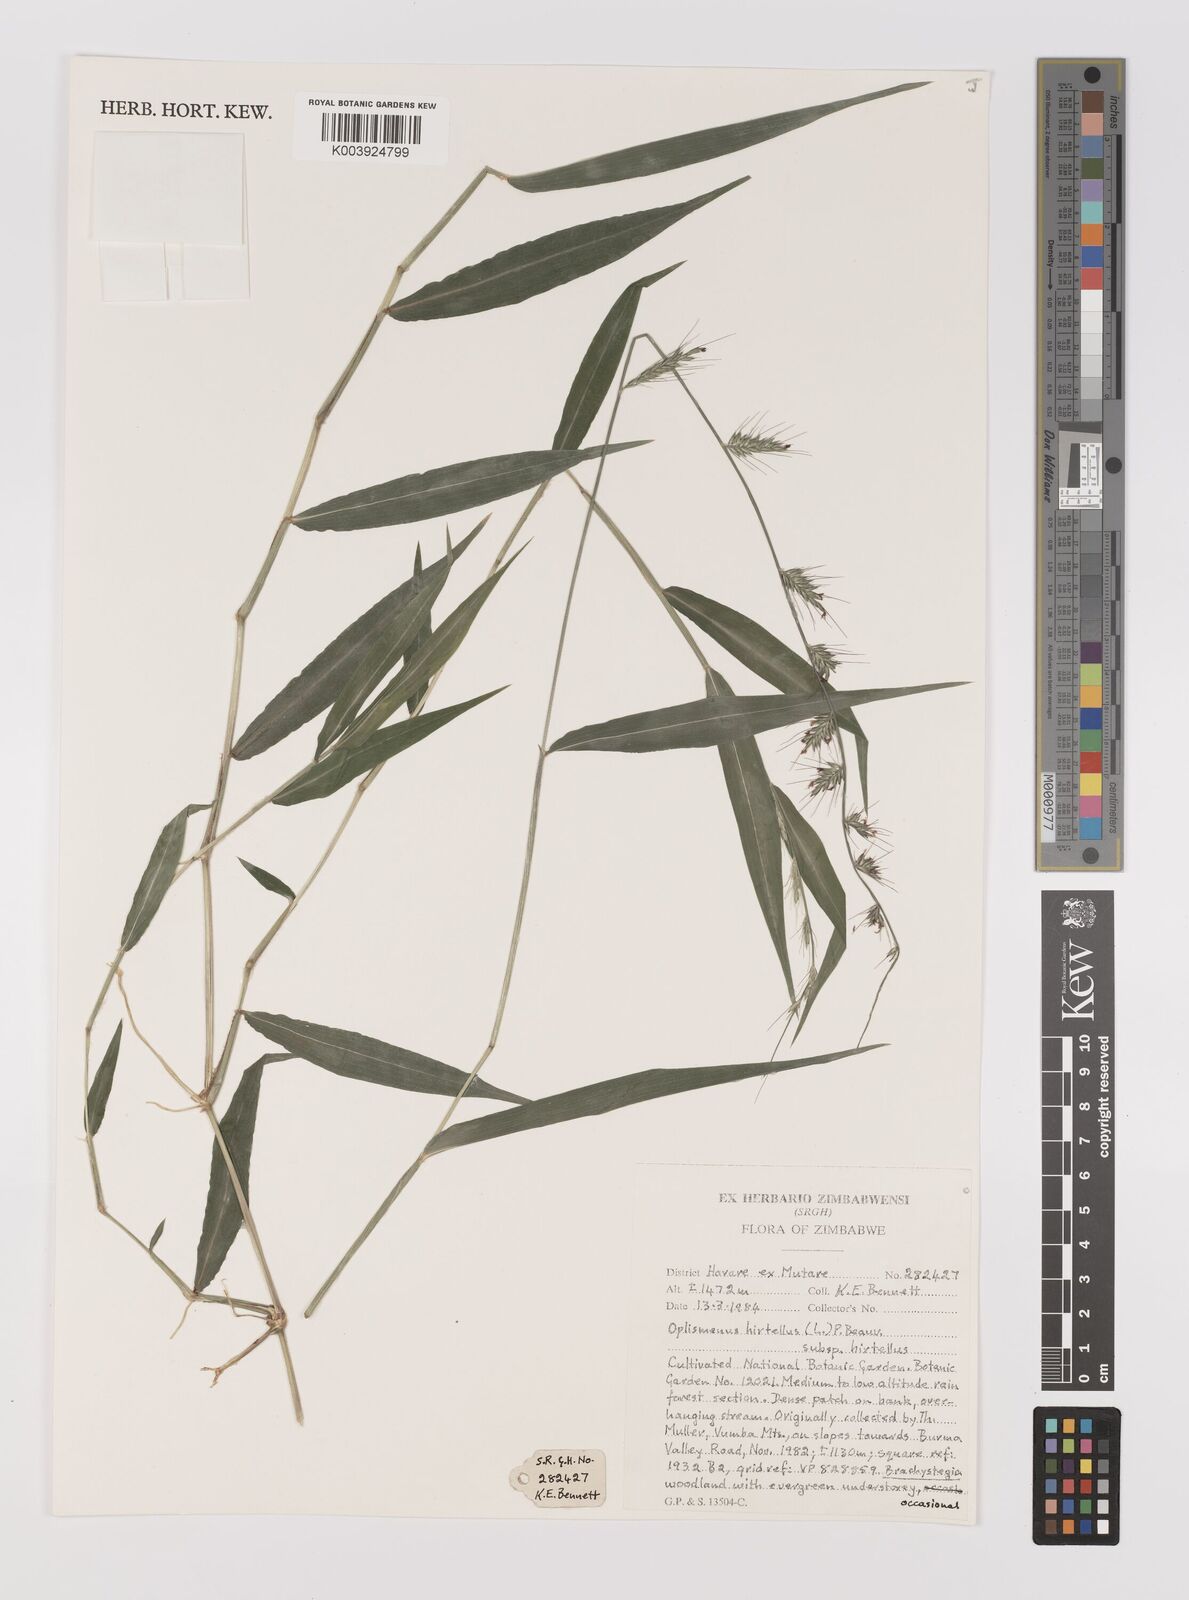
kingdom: Plantae
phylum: Tracheophyta
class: Liliopsida
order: Poales
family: Poaceae
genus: Oplismenus
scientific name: Oplismenus hirtellus
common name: Basketgrass
